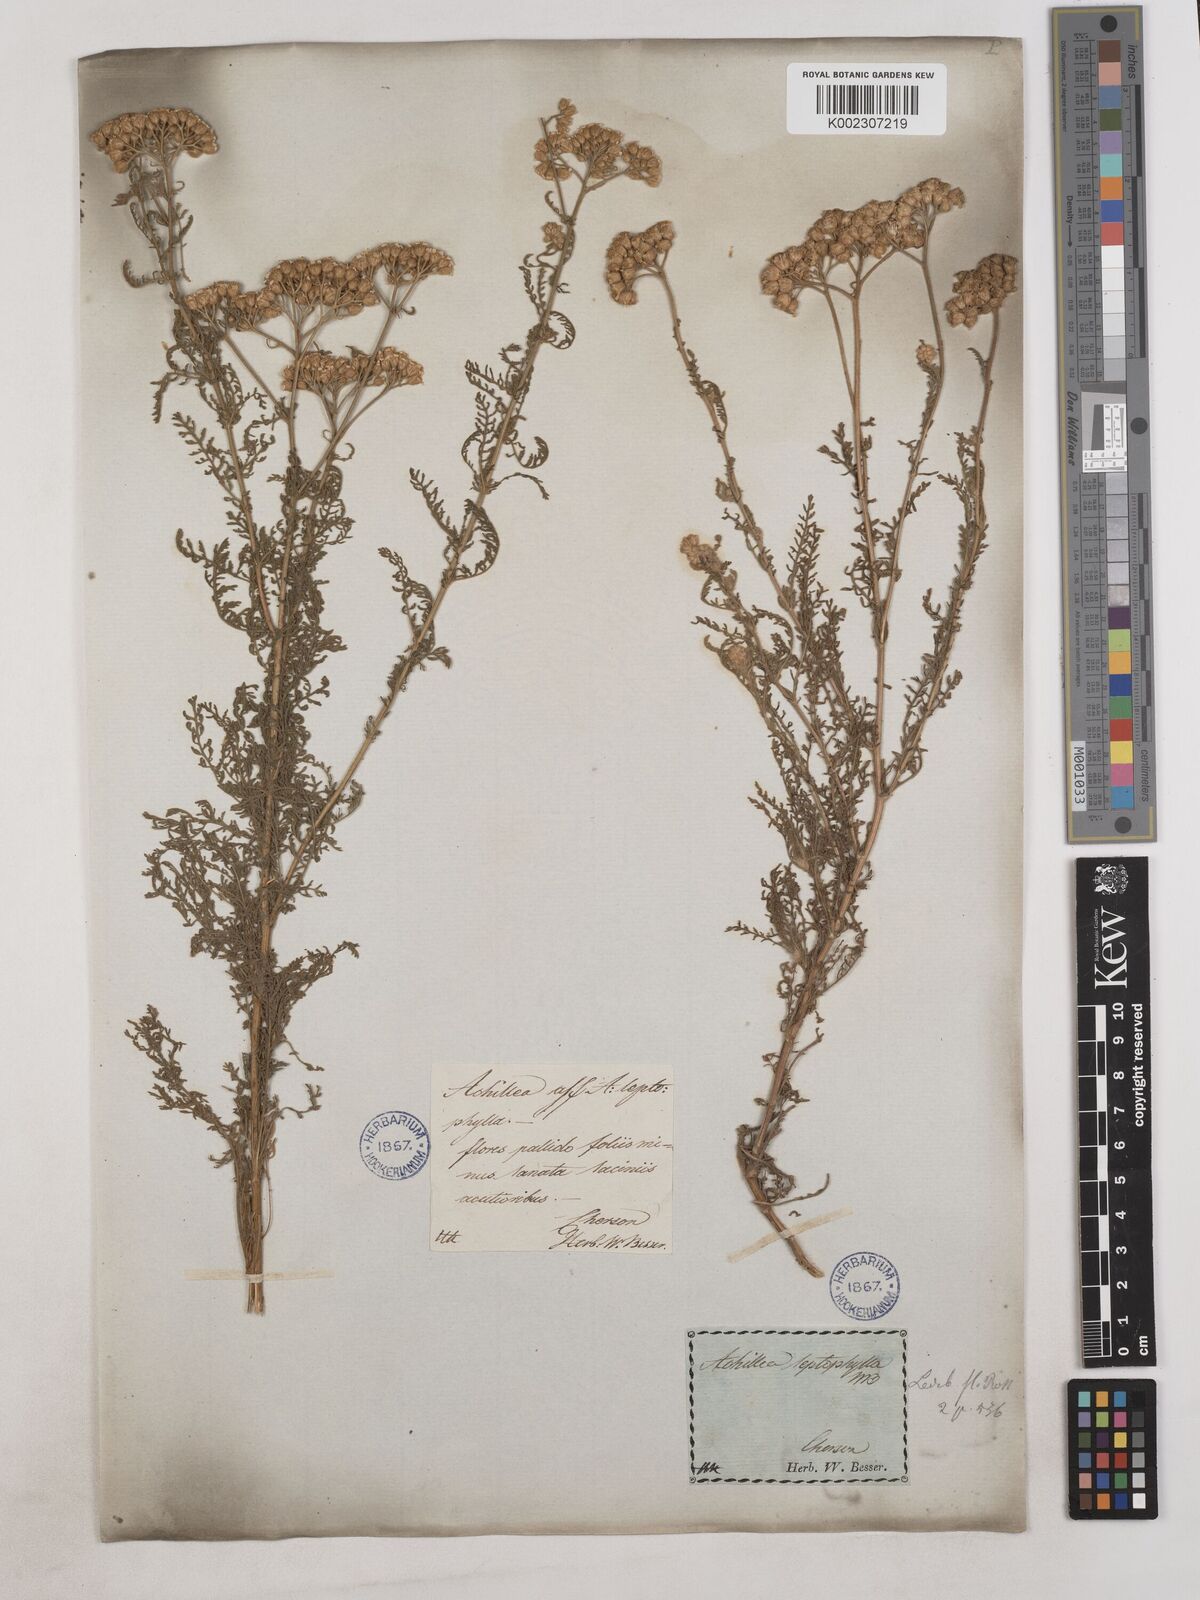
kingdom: Plantae
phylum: Tracheophyta
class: Magnoliopsida
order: Asterales
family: Asteraceae
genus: Achillea
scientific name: Achillea leptophylla
